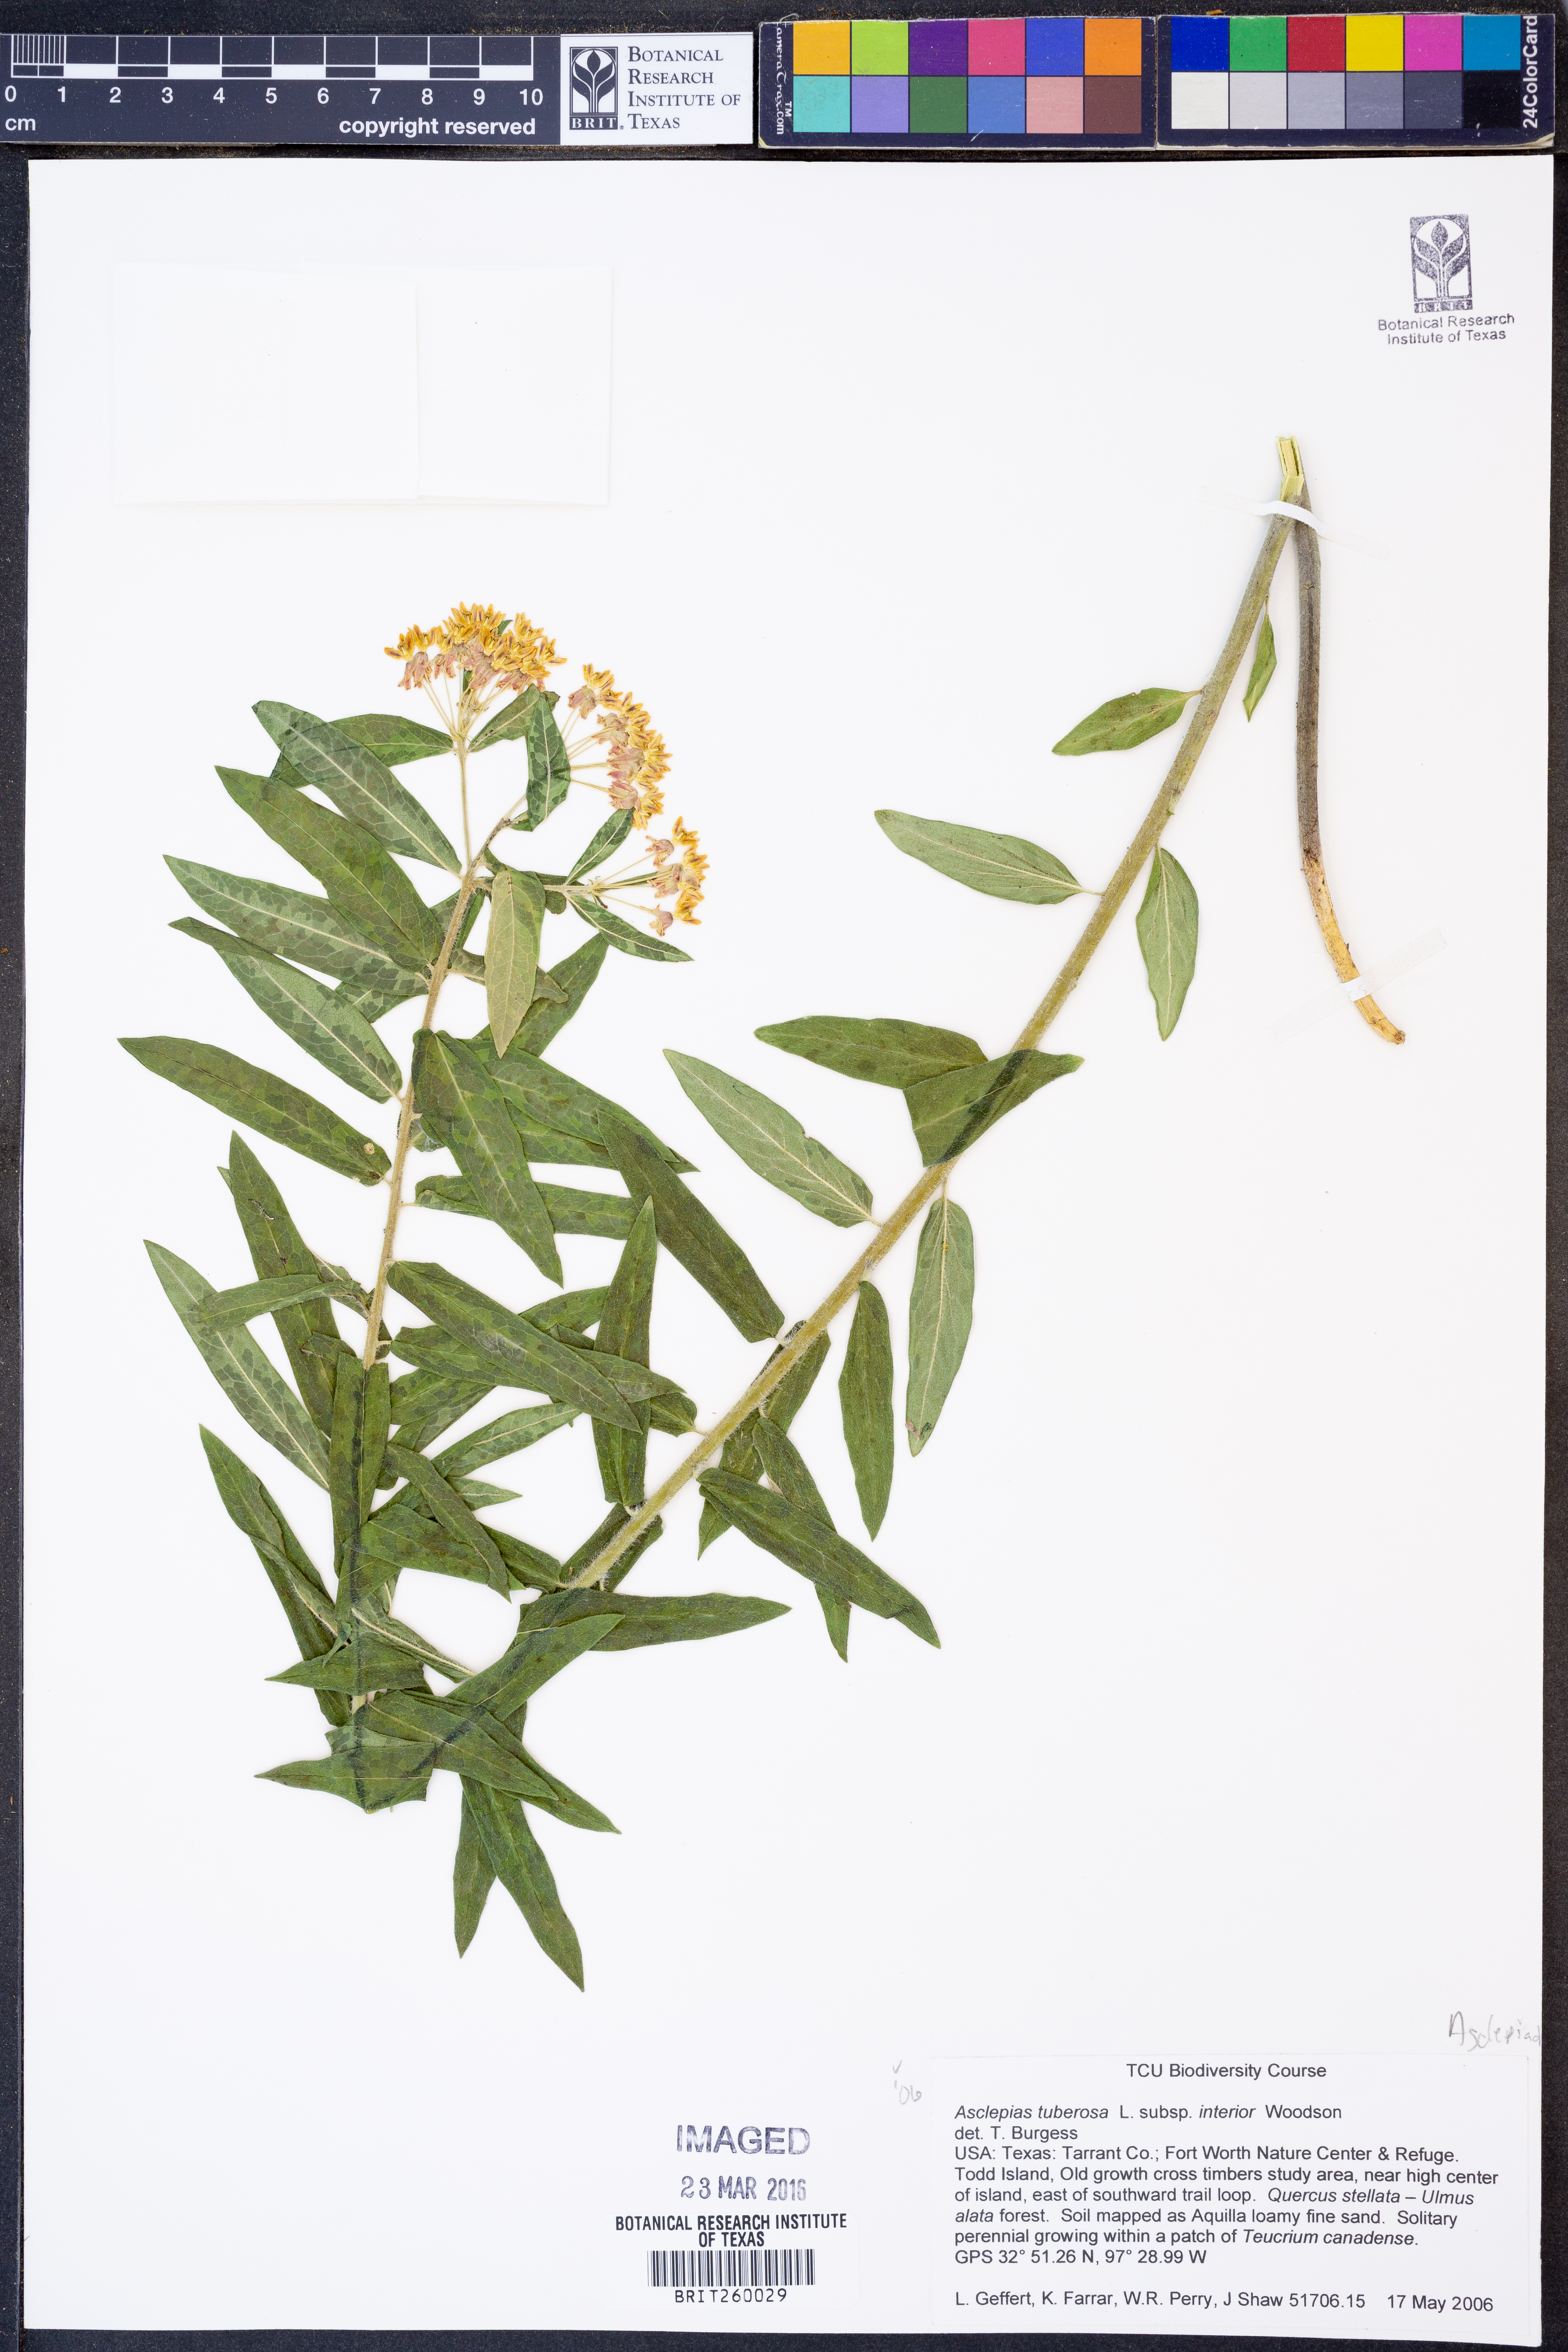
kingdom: Plantae
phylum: Tracheophyta
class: Magnoliopsida
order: Gentianales
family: Apocynaceae
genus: Asclepias
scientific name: Asclepias tuberosa
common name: Butterfly milkweed
